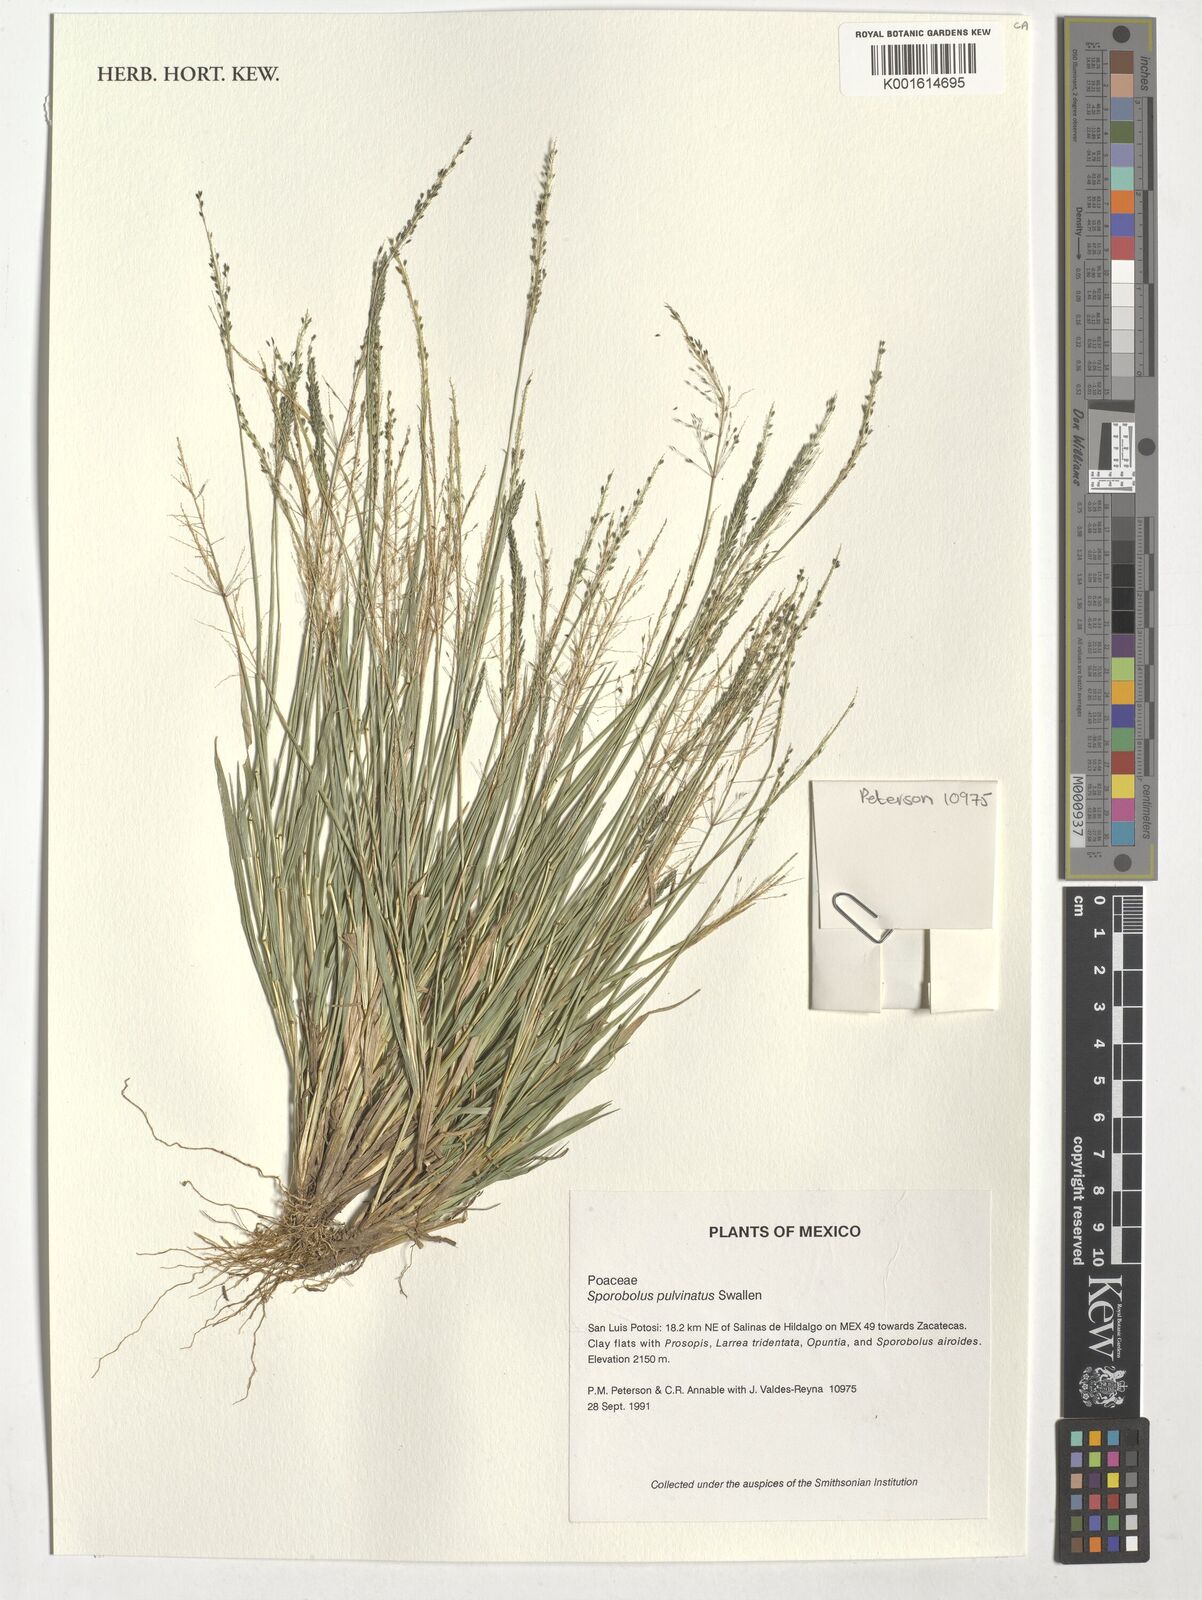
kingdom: Plantae
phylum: Tracheophyta
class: Liliopsida
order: Poales
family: Poaceae
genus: Sporobolus
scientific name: Sporobolus pyramidatus
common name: Whorled dropseed
